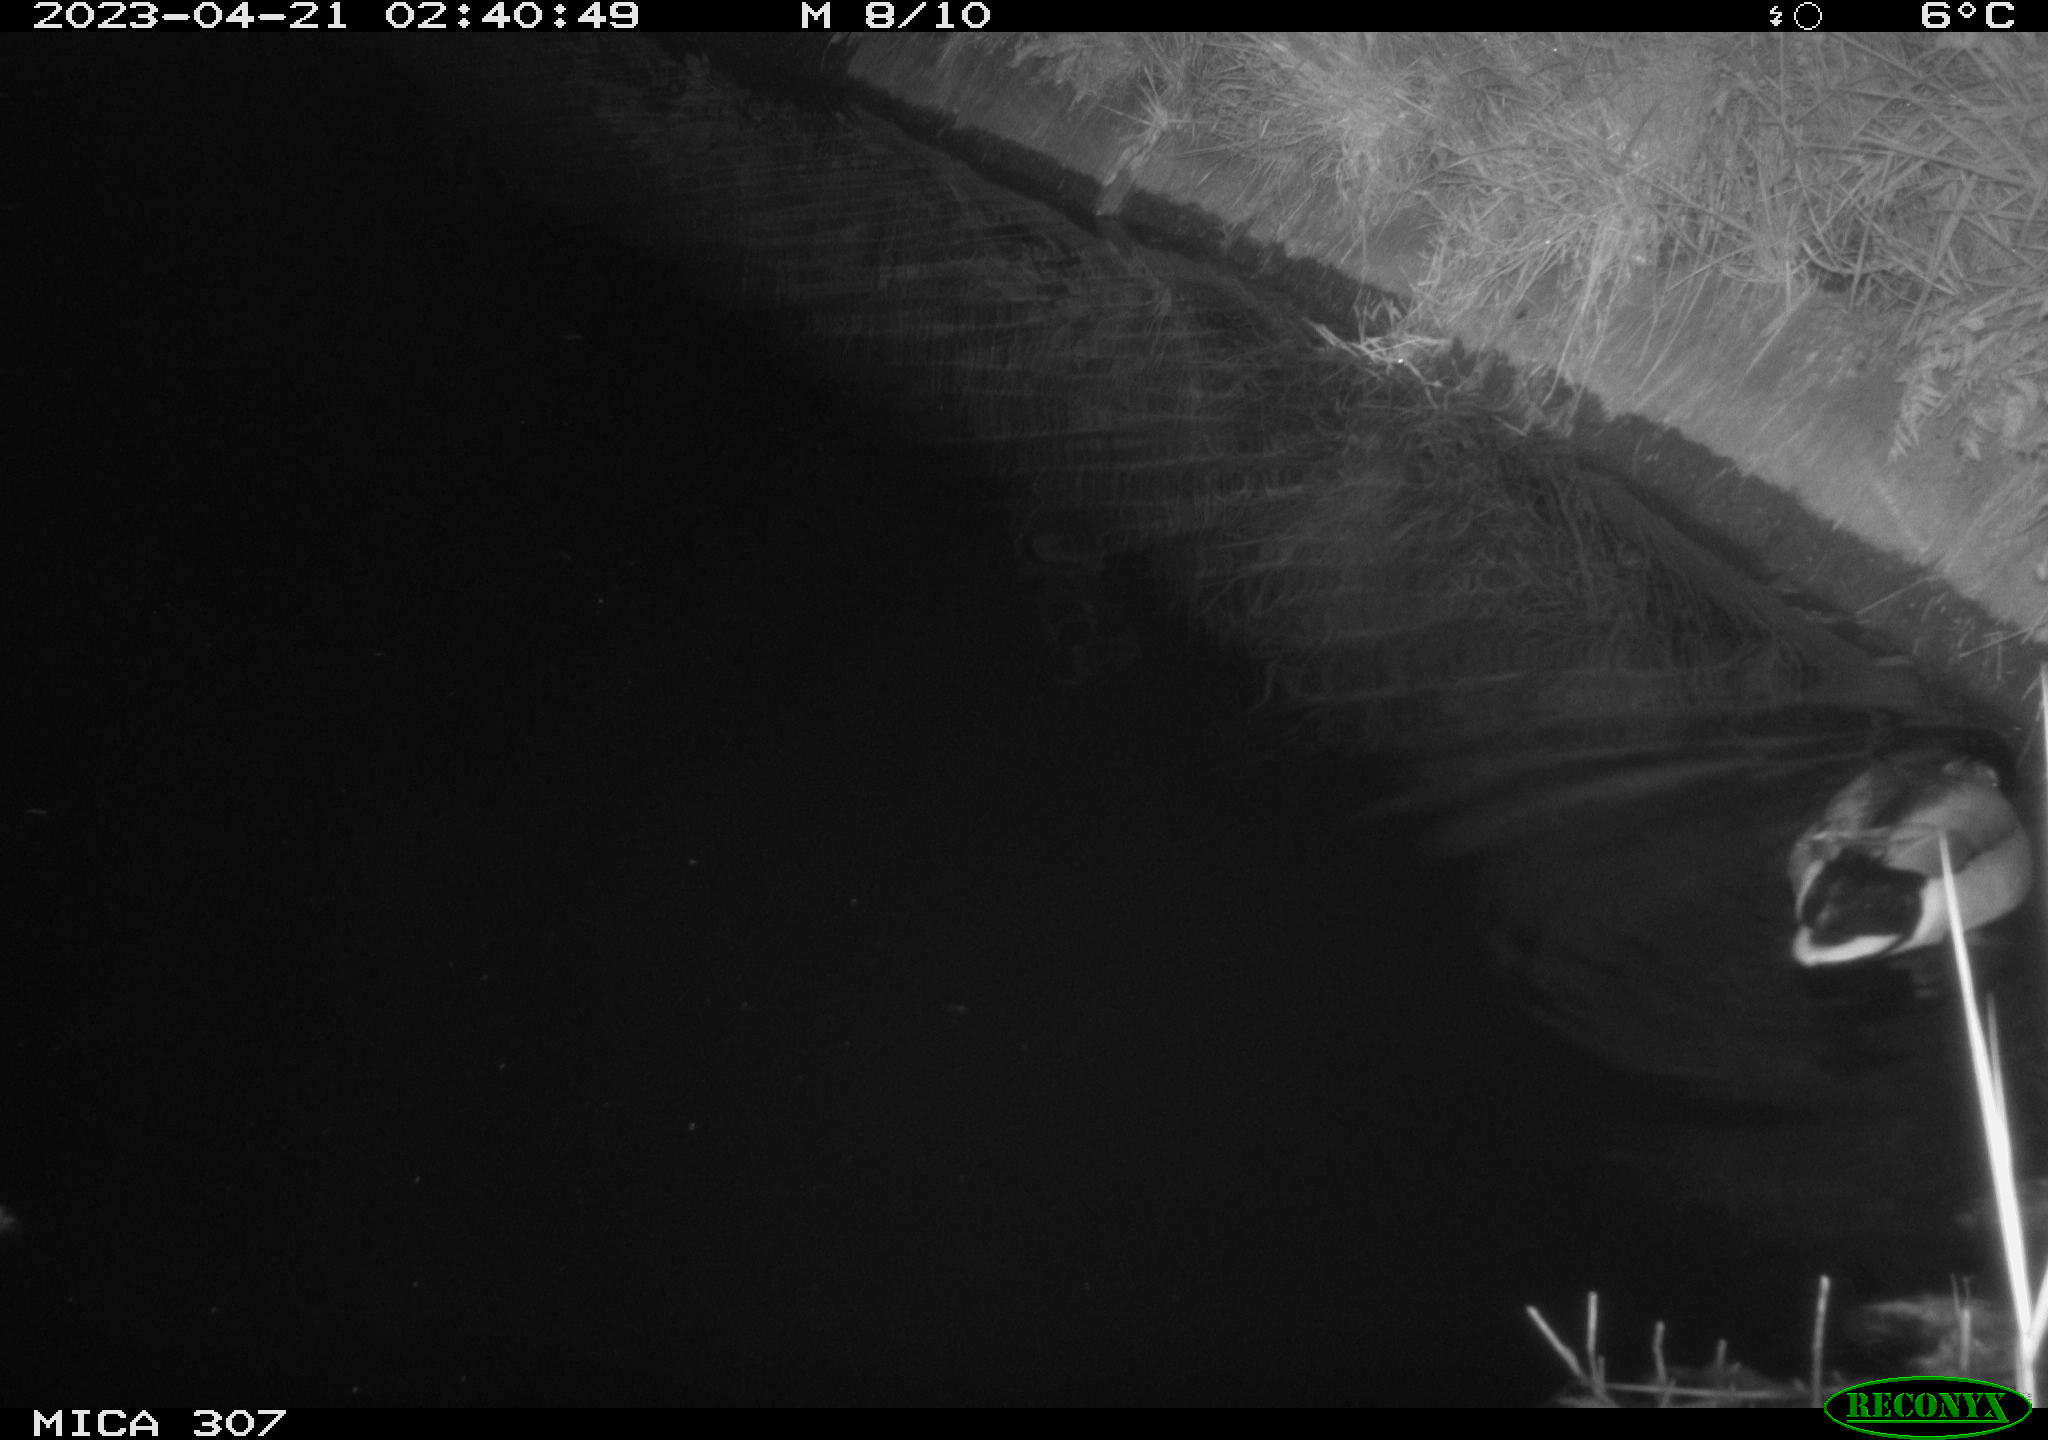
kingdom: Animalia
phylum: Chordata
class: Aves
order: Anseriformes
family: Anatidae
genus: Anas
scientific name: Anas
